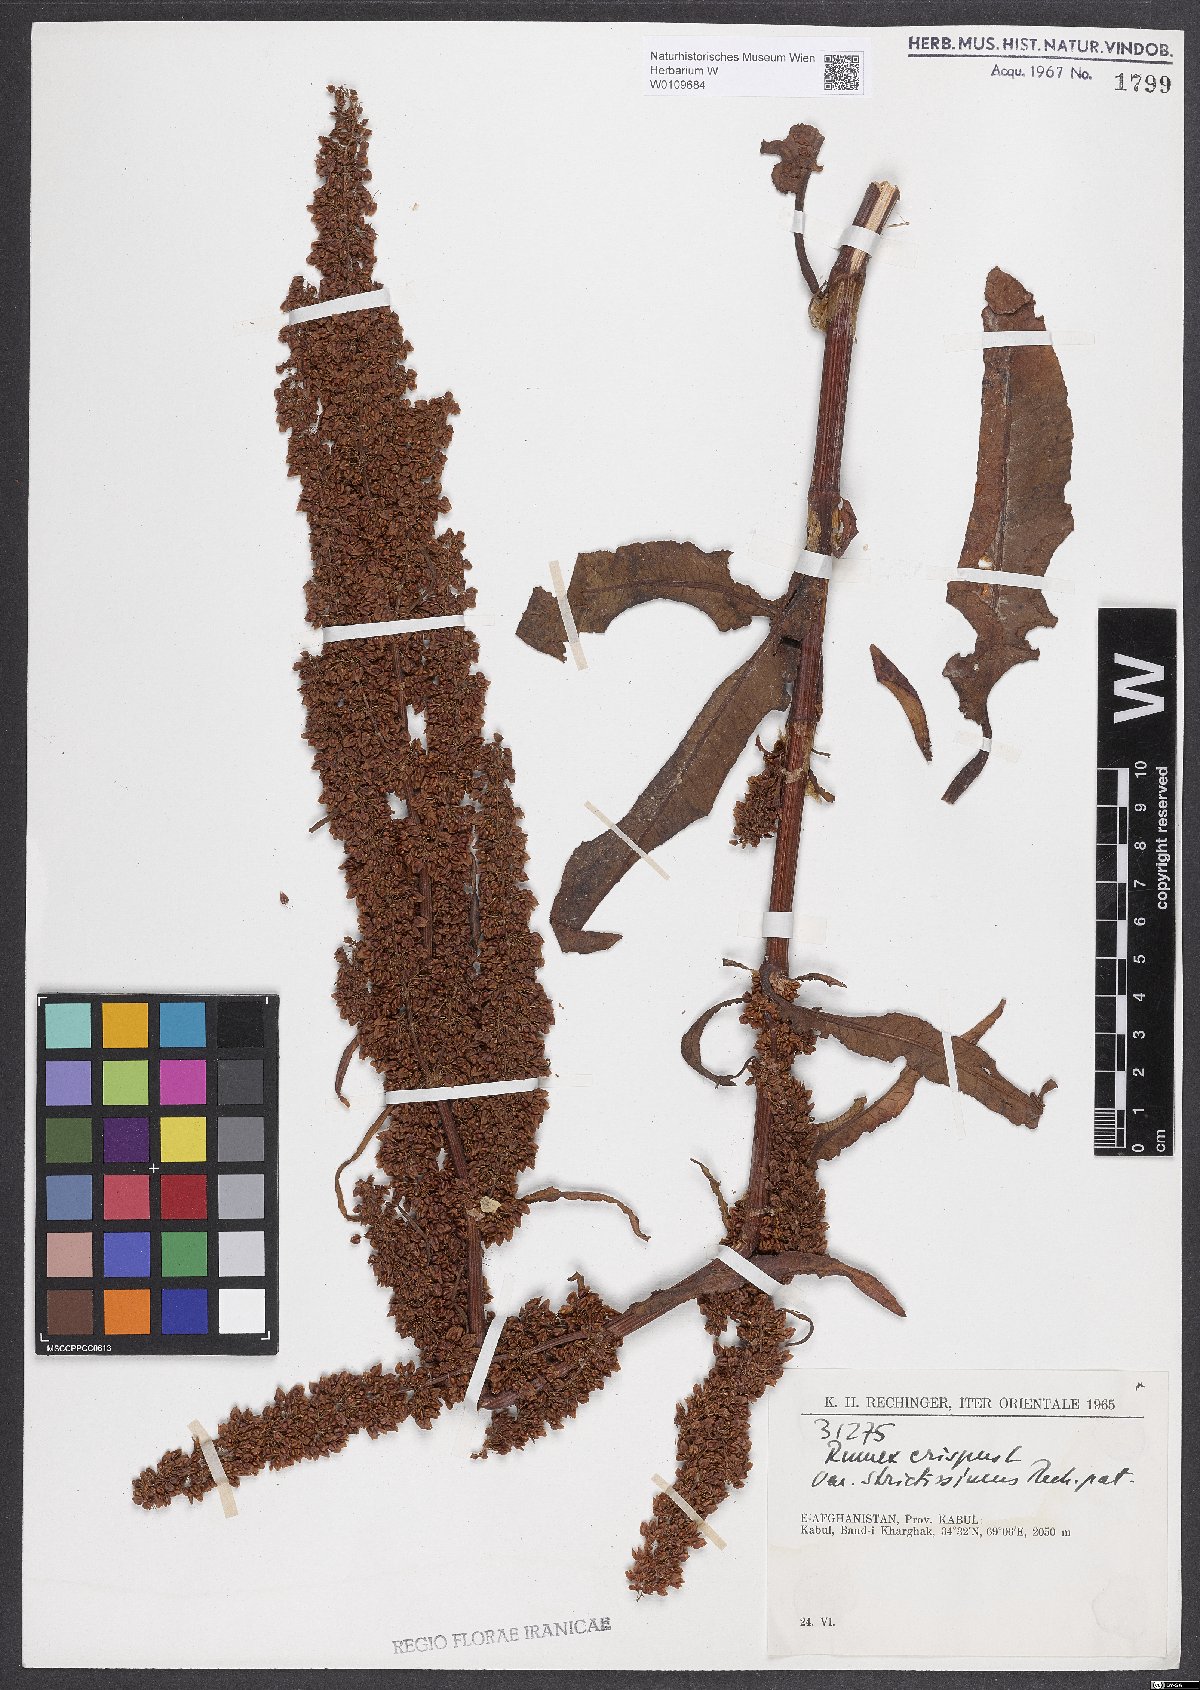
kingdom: Plantae
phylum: Tracheophyta
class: Magnoliopsida
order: Caryophyllales
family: Polygonaceae
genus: Rumex
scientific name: Rumex crispus
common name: Curled dock
